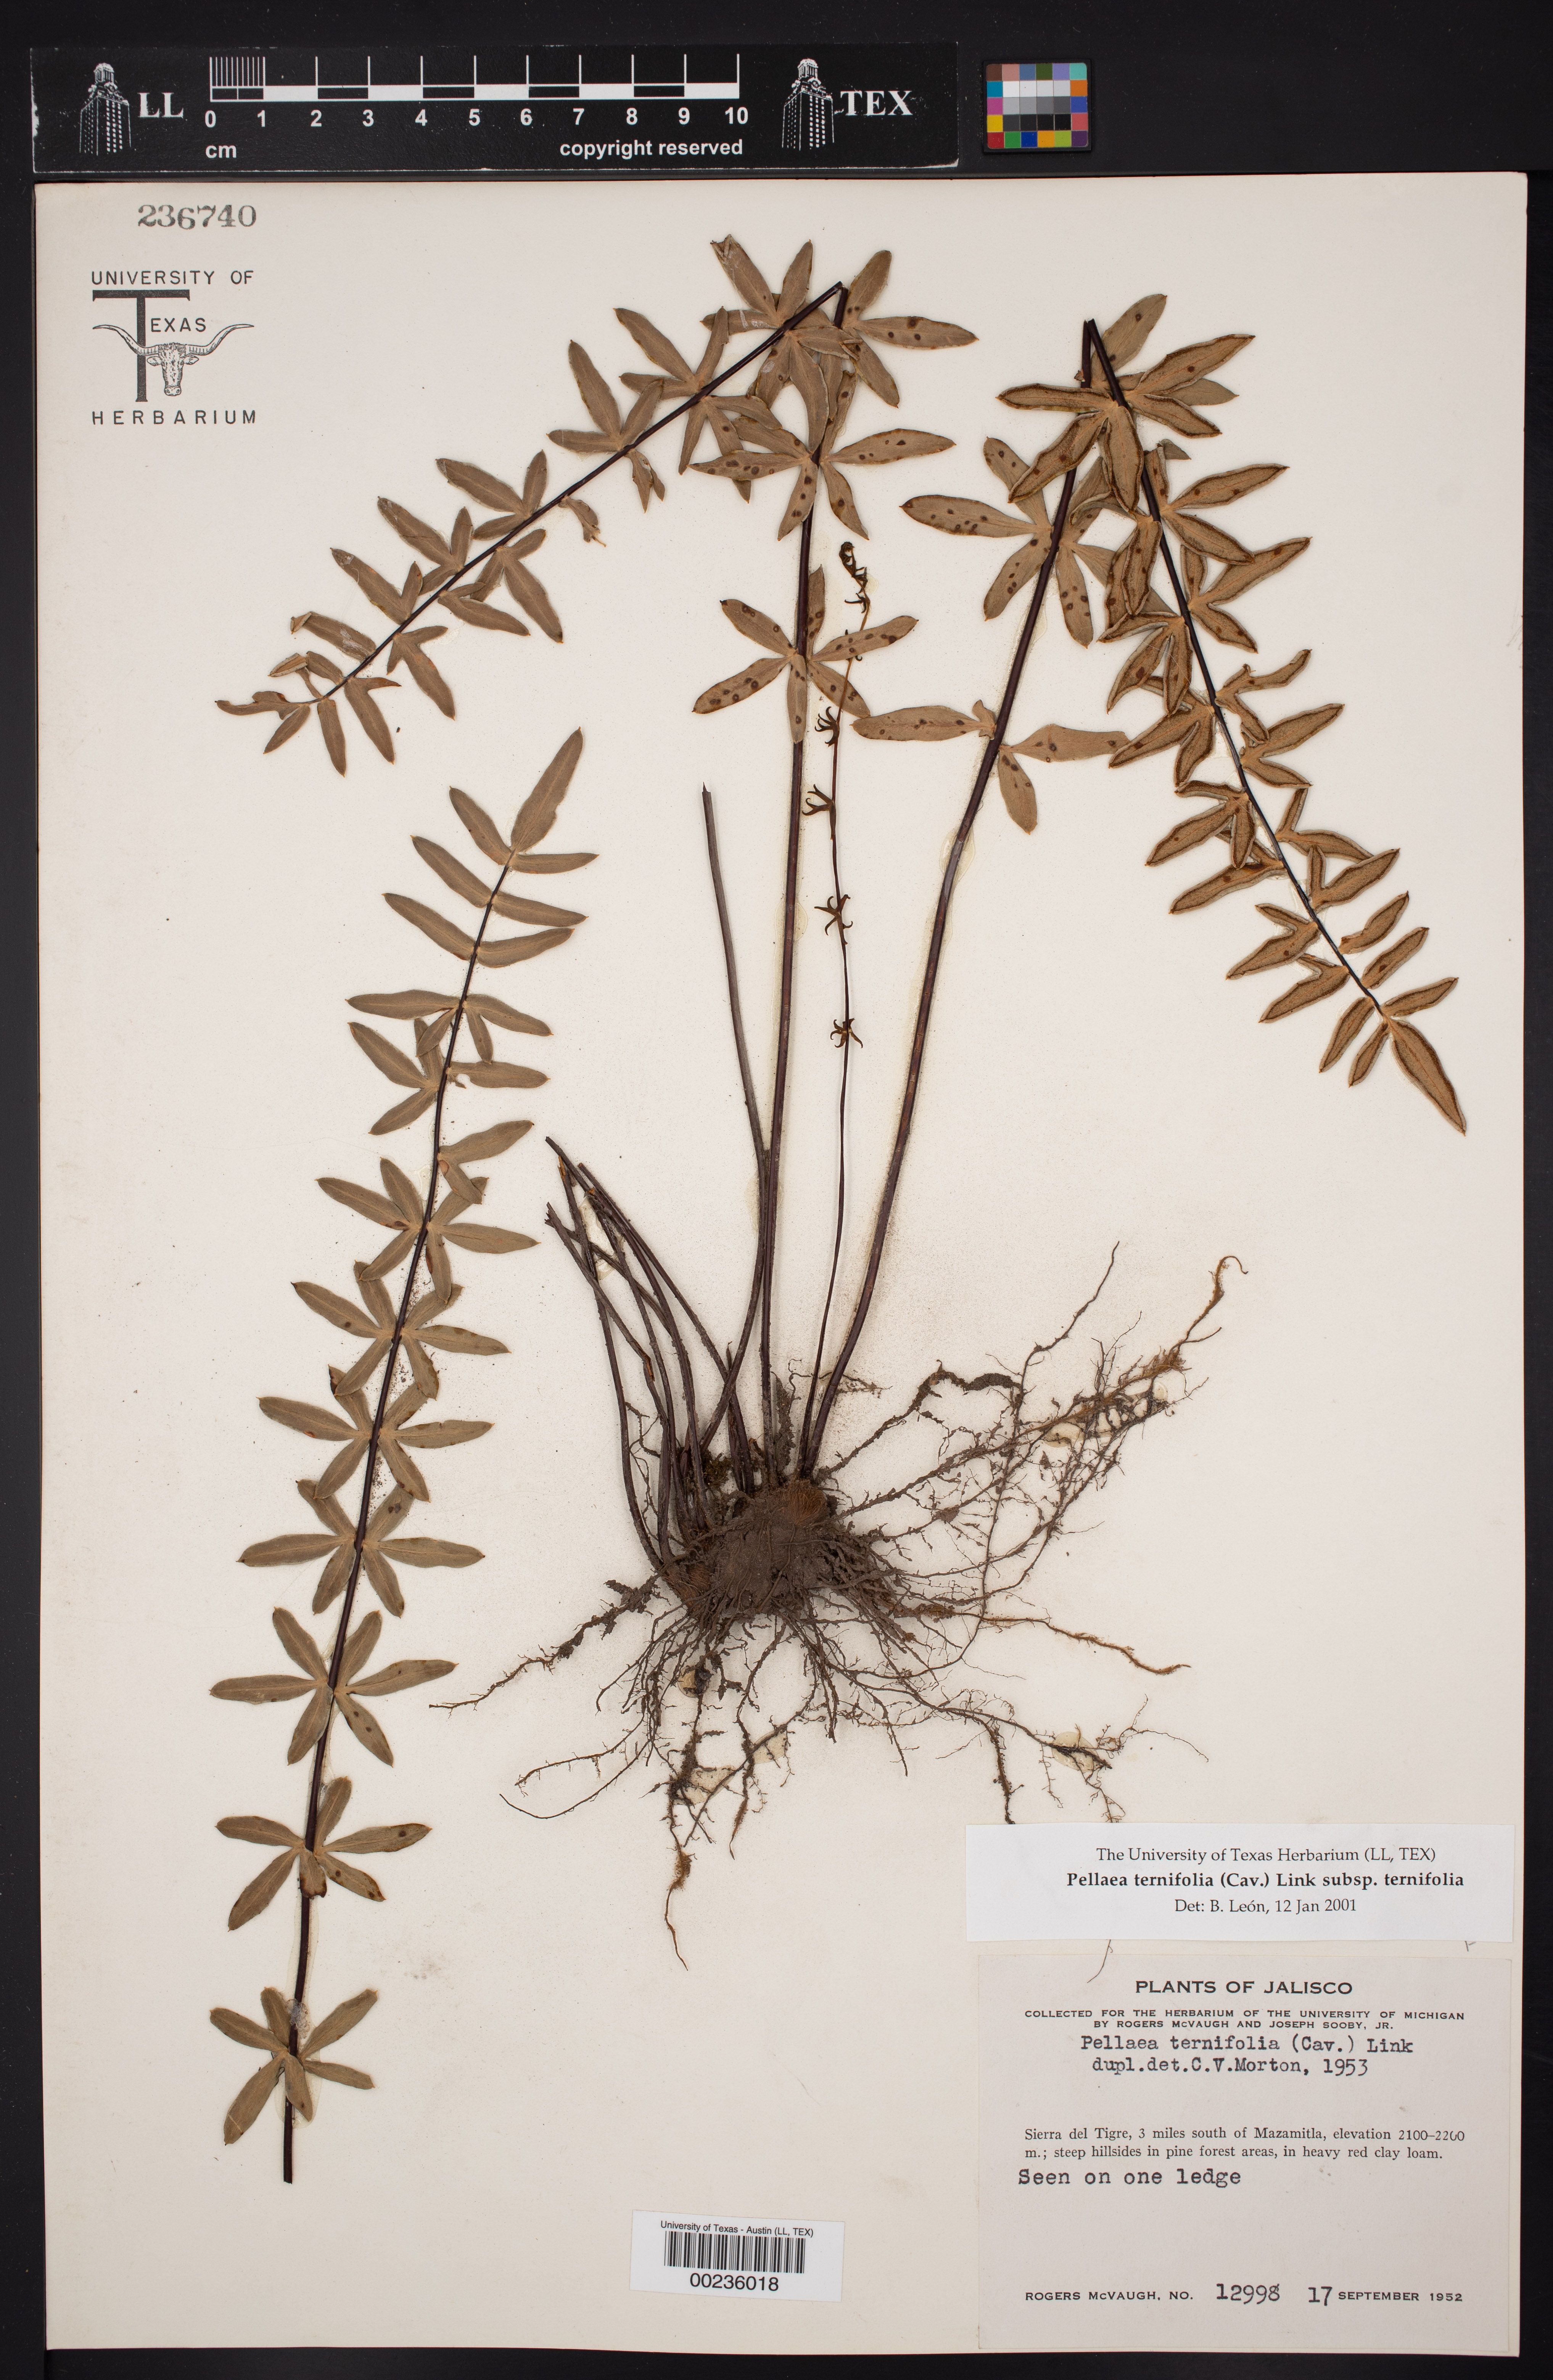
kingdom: Plantae
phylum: Tracheophyta
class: Polypodiopsida
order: Polypodiales
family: Pteridaceae
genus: Pellaea
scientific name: Pellaea ternifolia
